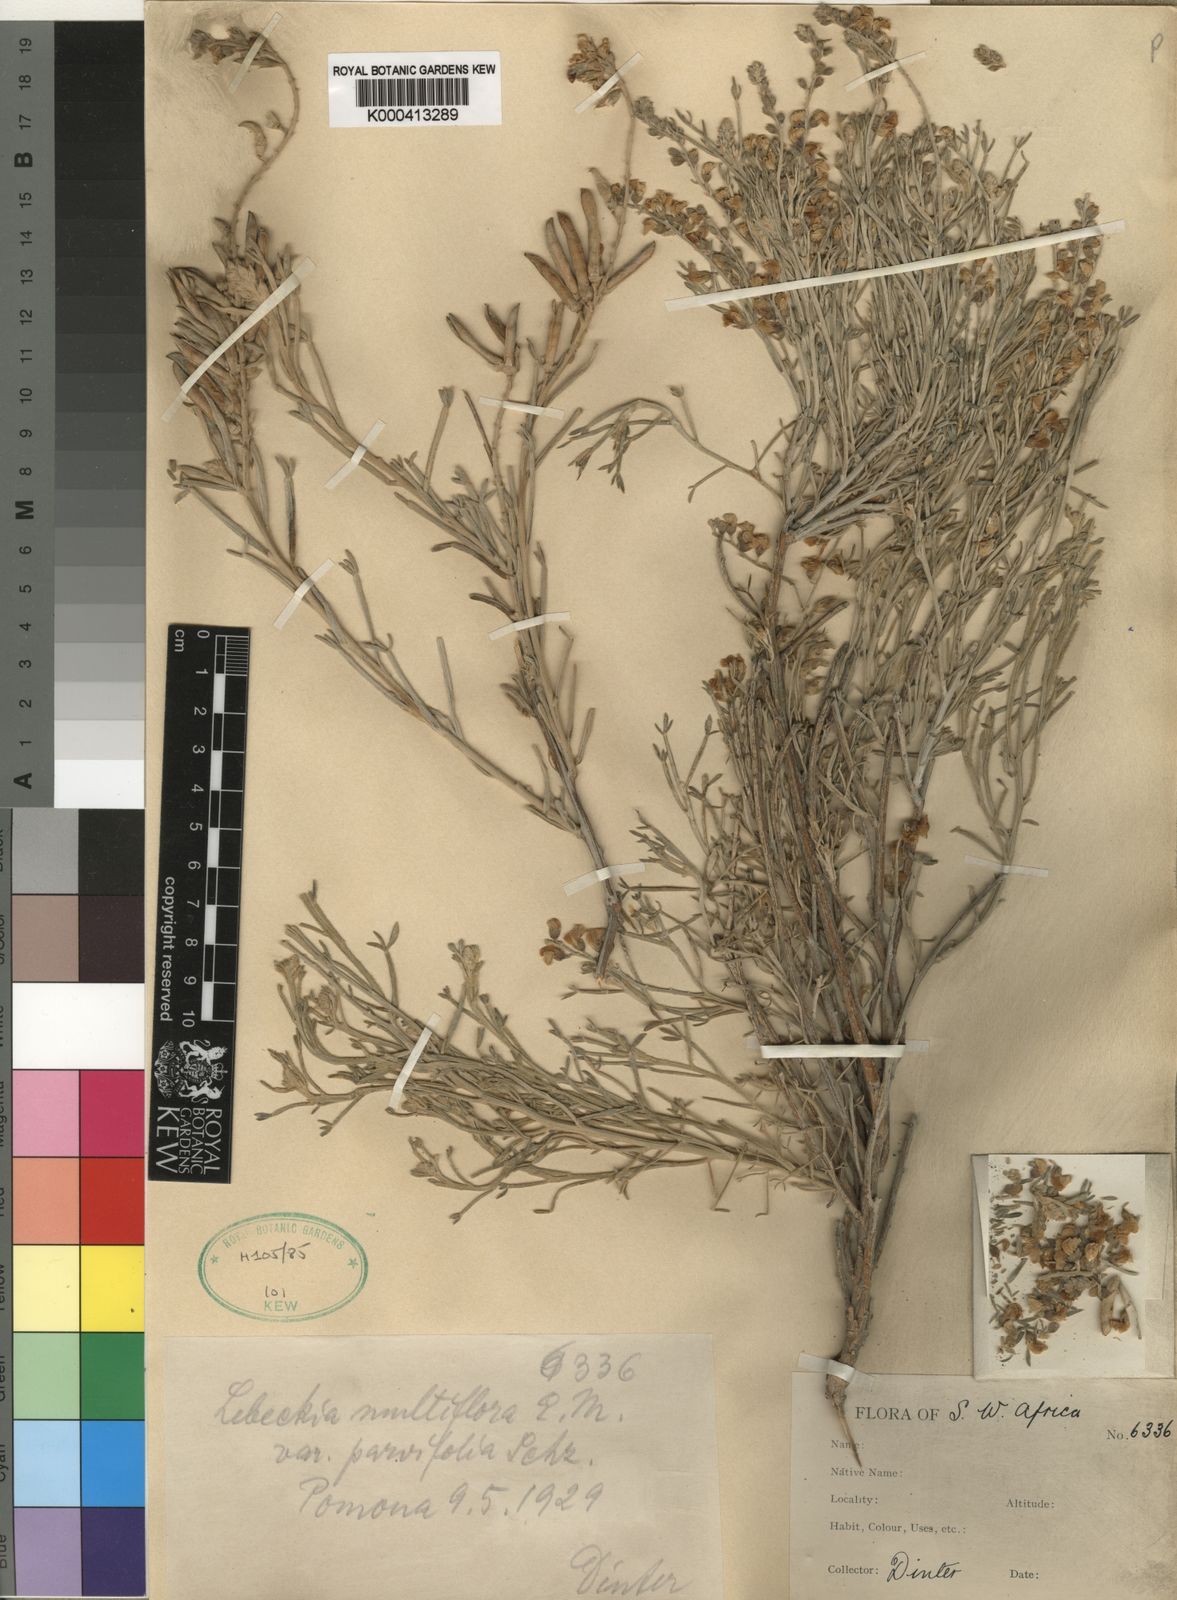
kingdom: Plantae
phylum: Tracheophyta
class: Magnoliopsida
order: Fabales
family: Fabaceae
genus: Calobota
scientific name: Calobota angustifolia
